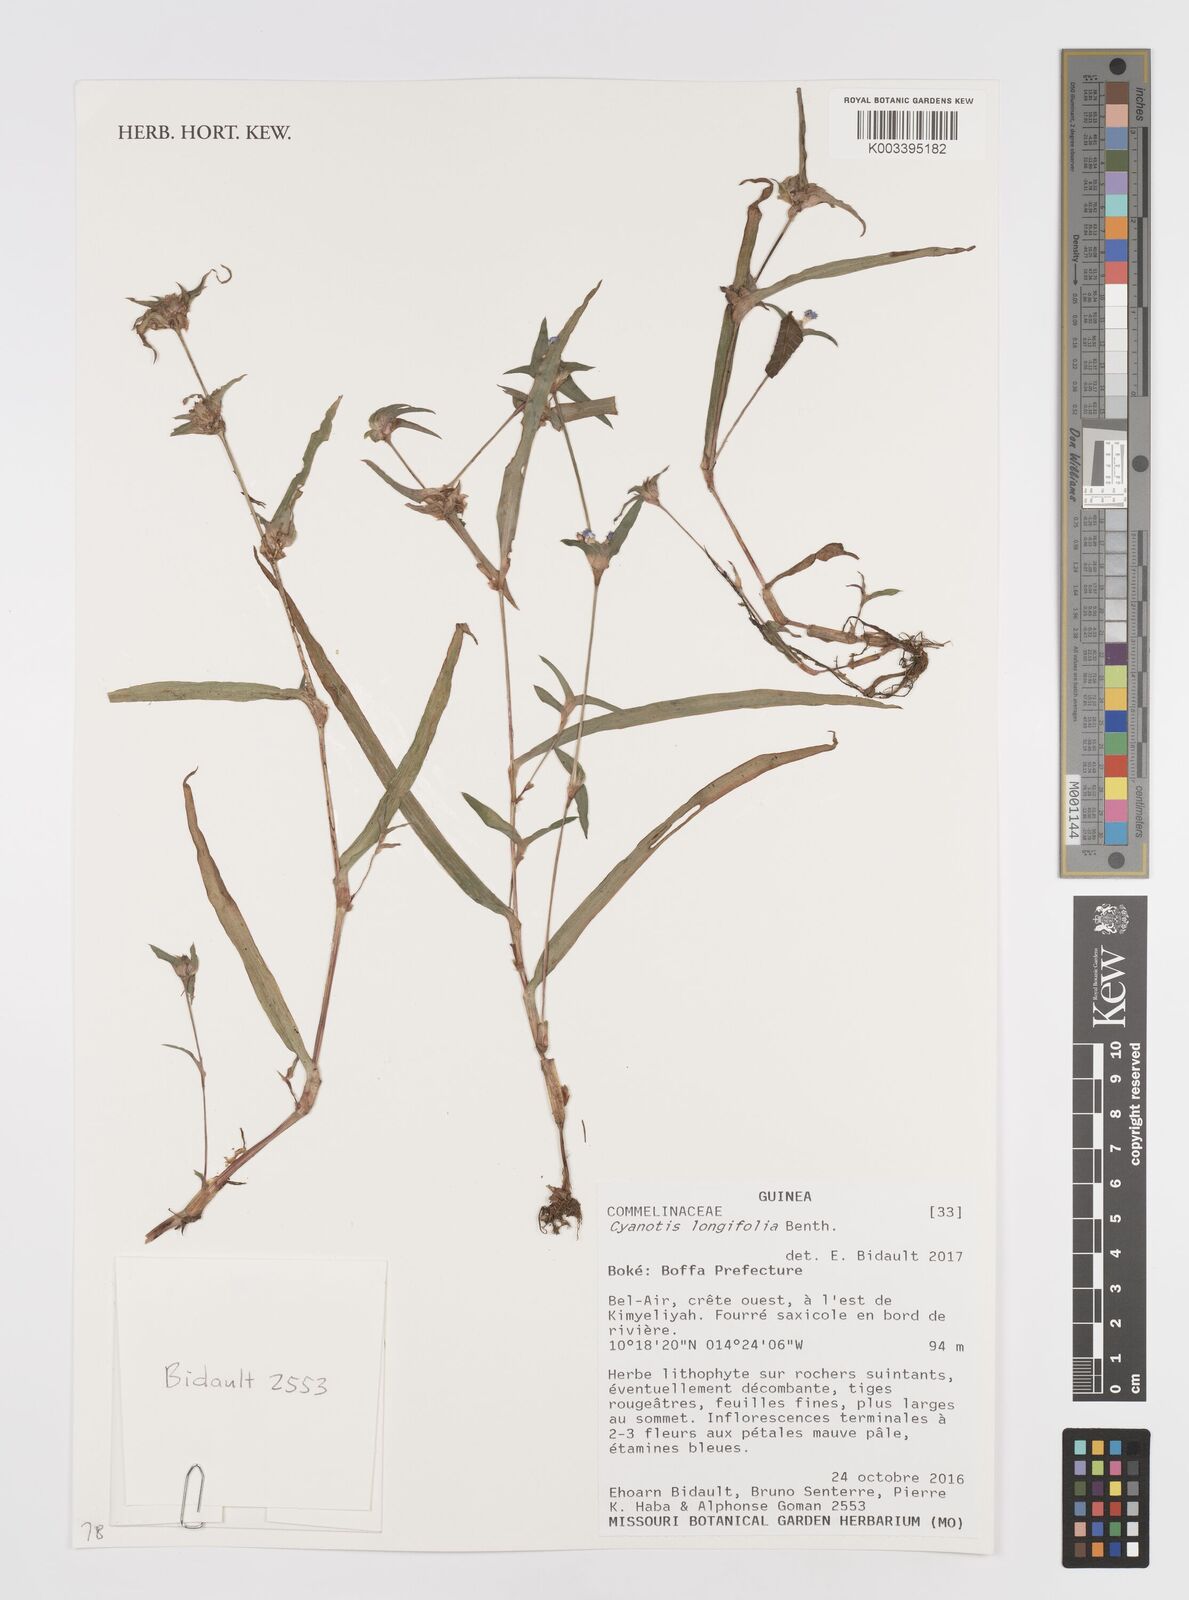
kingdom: Plantae
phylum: Tracheophyta
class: Liliopsida
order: Commelinales
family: Commelinaceae
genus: Cyanotis
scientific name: Cyanotis
